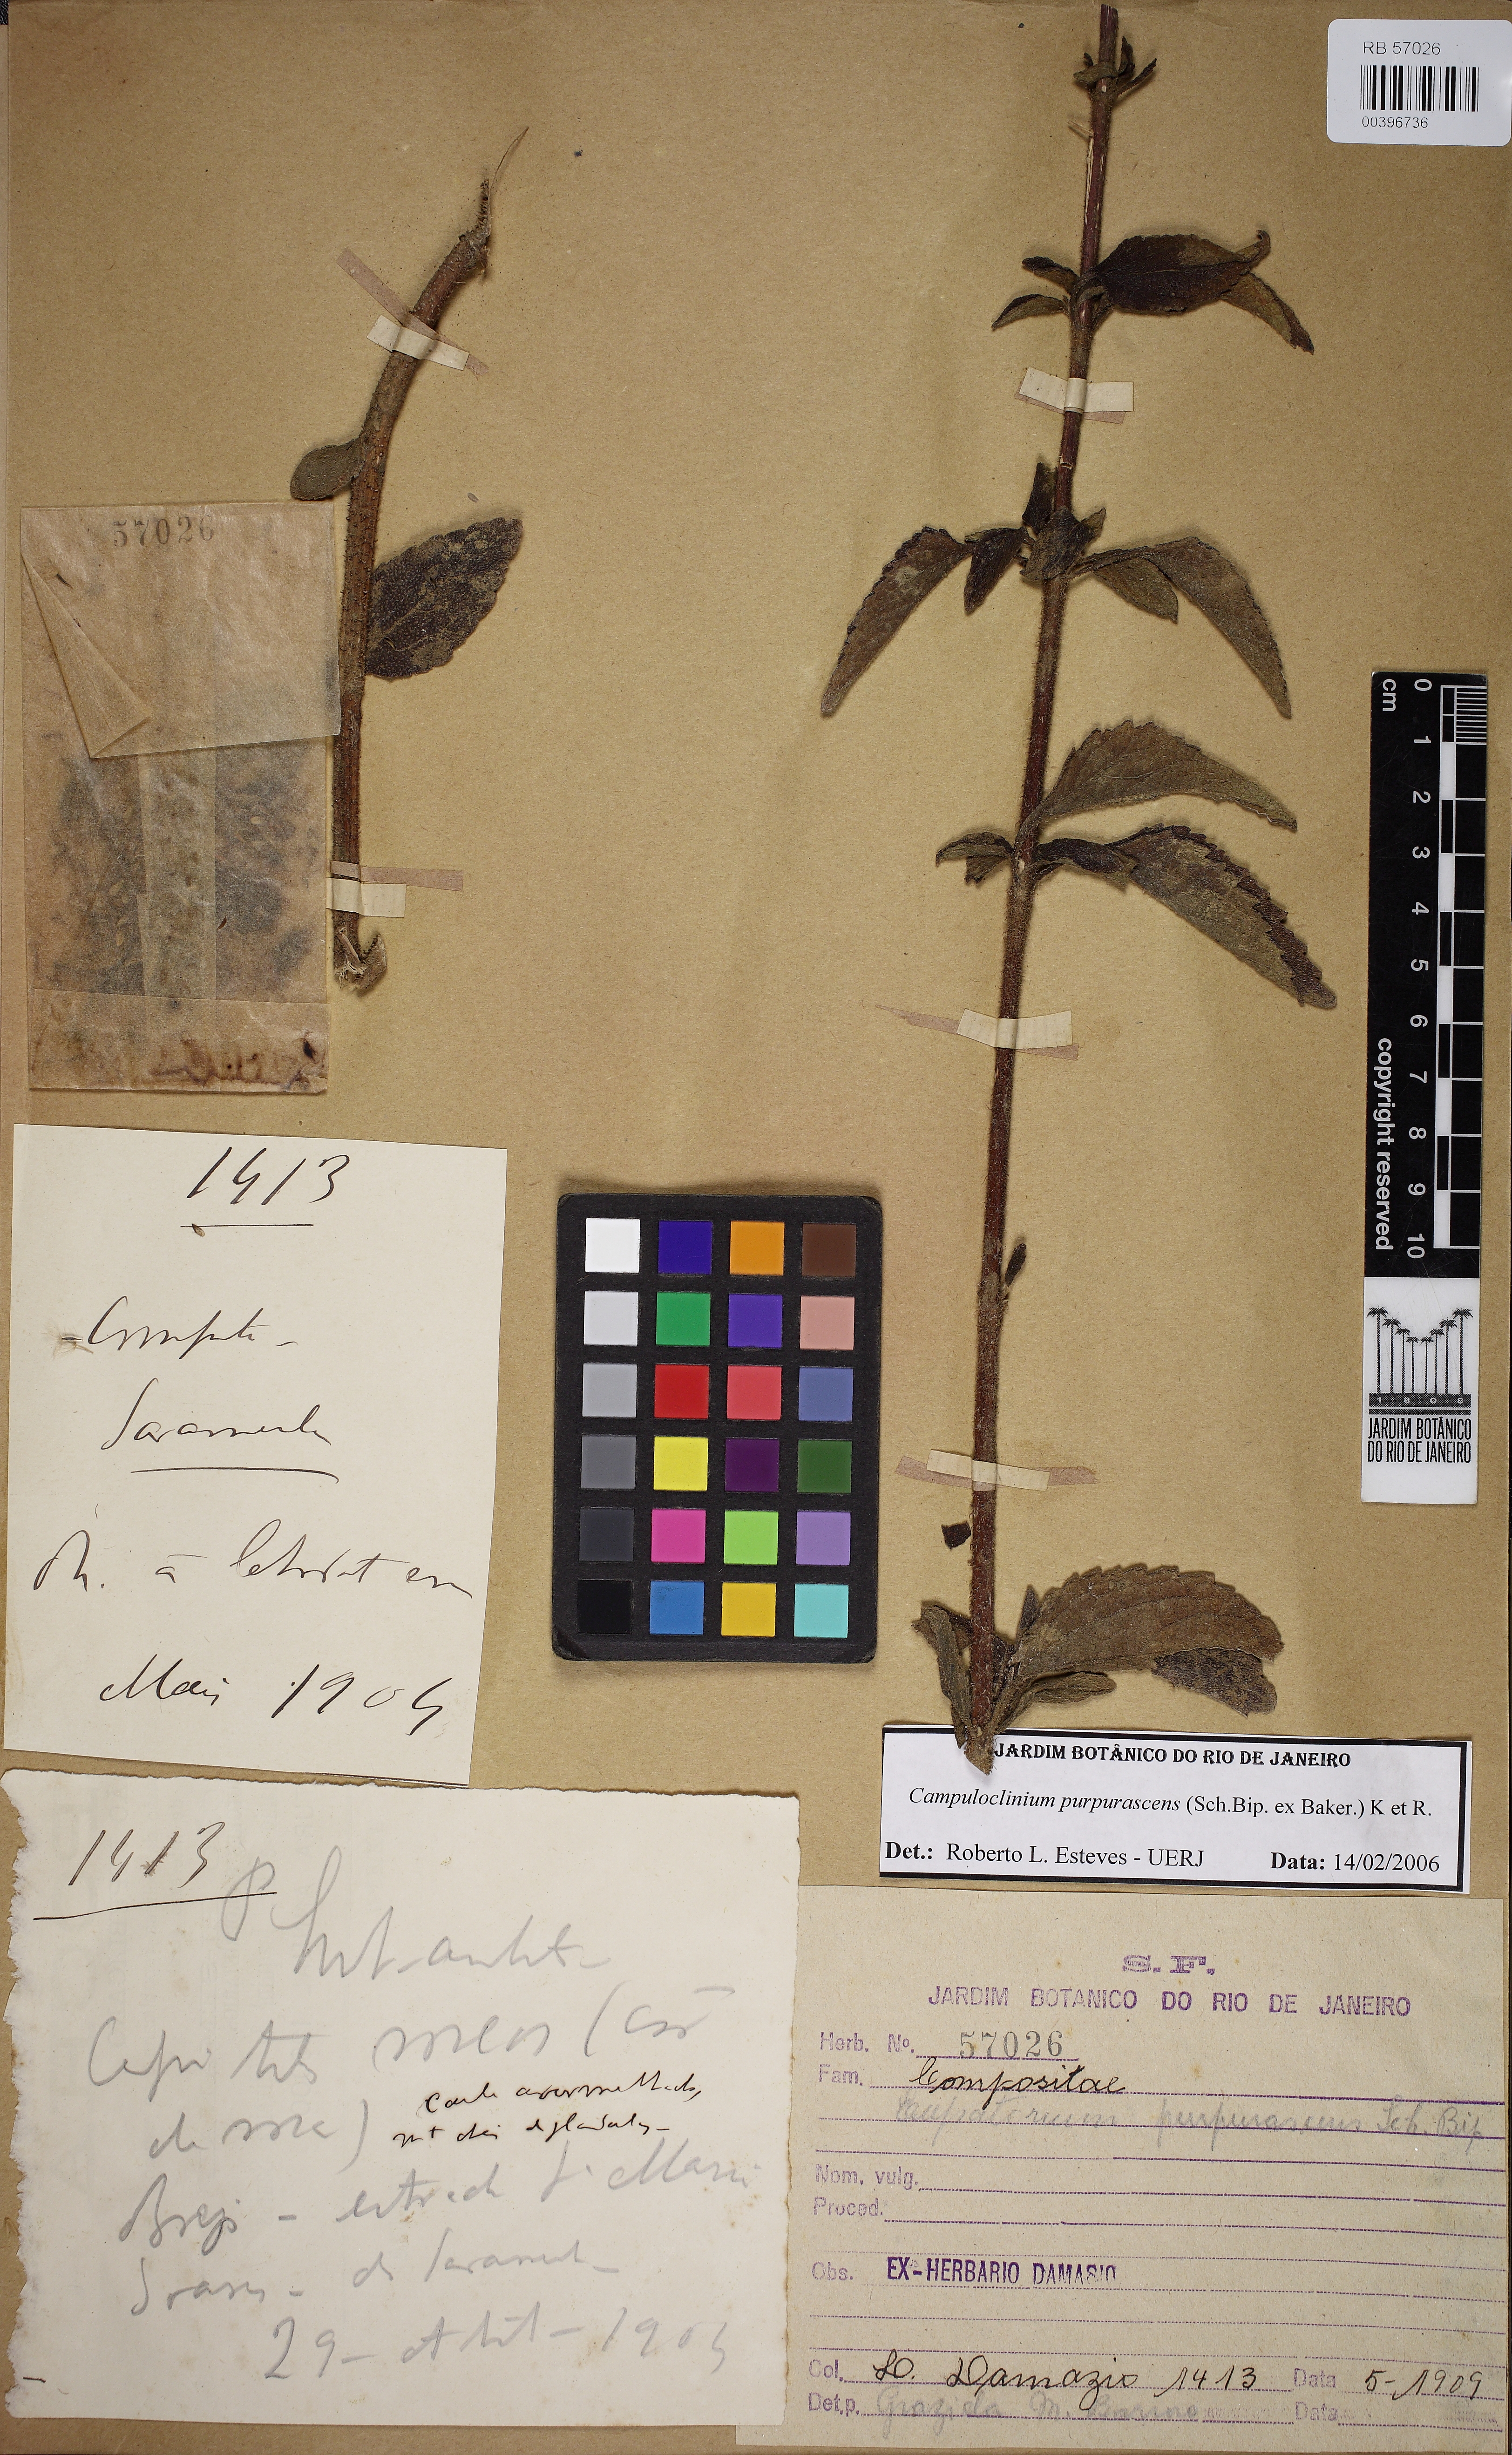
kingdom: Plantae
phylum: Tracheophyta
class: Magnoliopsida
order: Asterales
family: Asteraceae
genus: Campuloclinium
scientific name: Campuloclinium purpurascens
